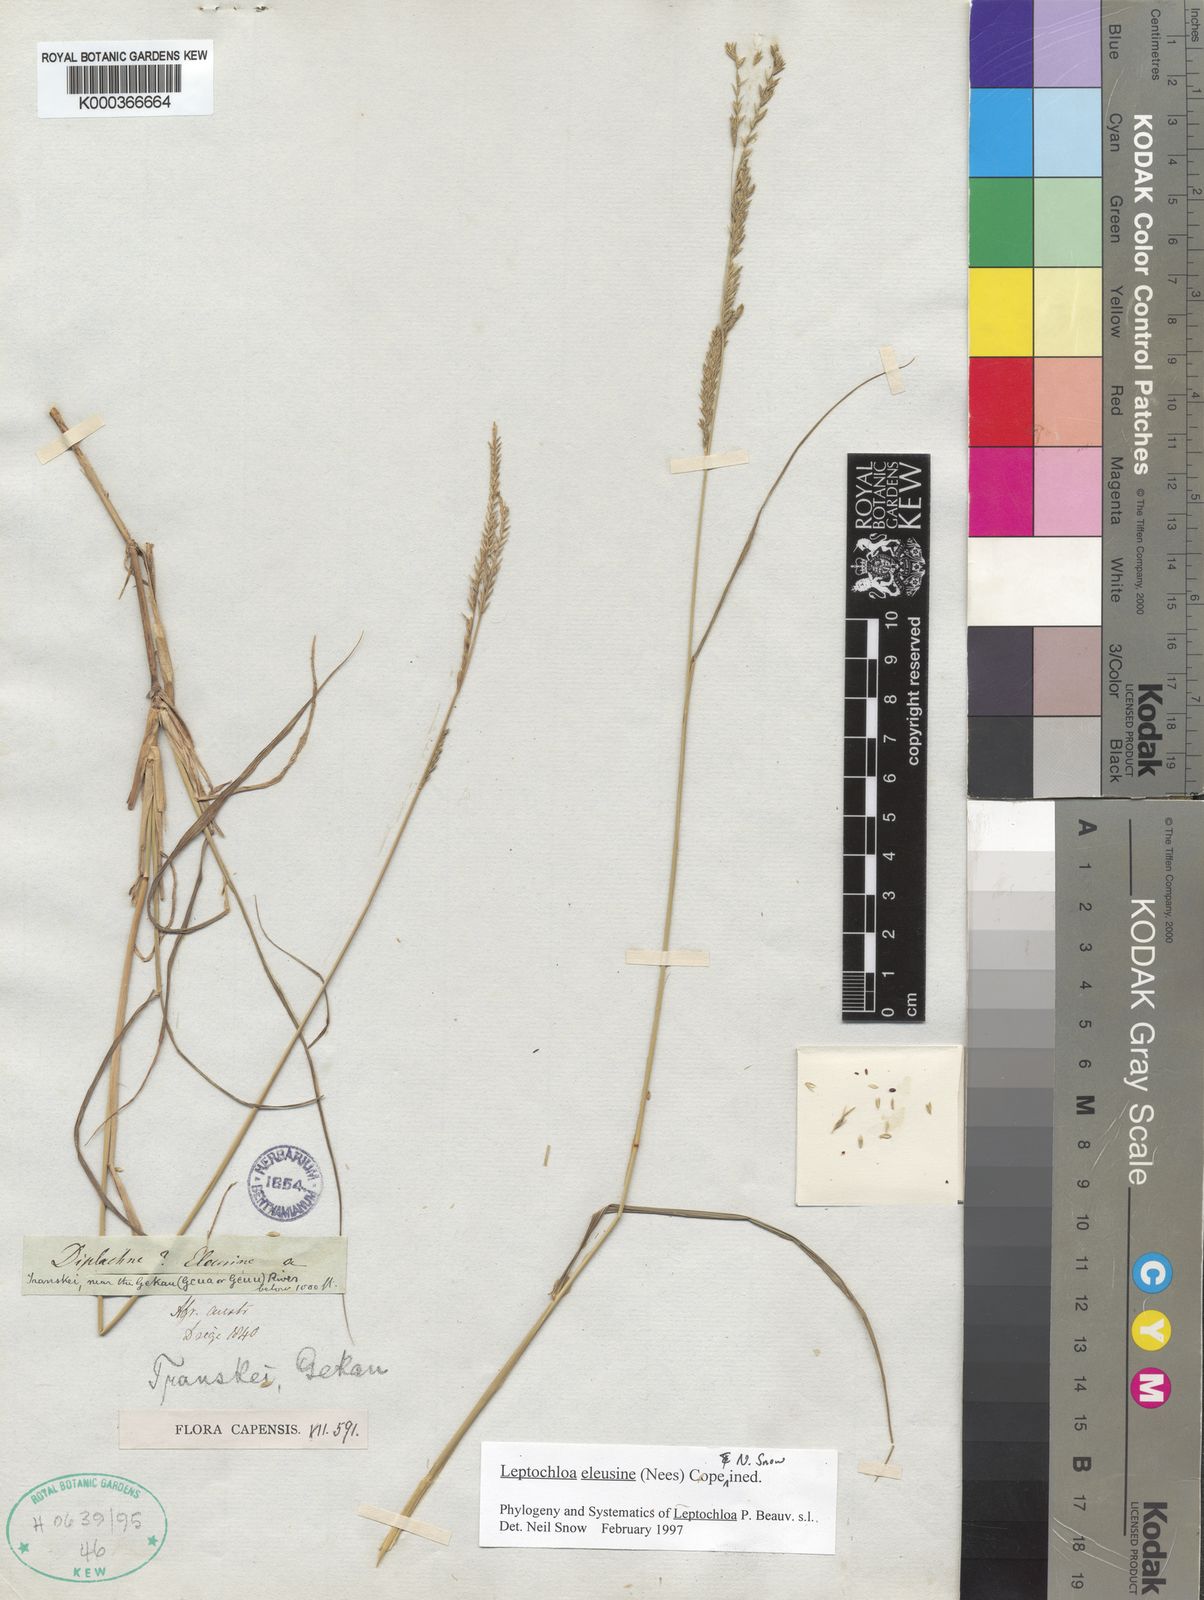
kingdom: Plantae
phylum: Tracheophyta
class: Liliopsida
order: Poales
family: Poaceae
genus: Disakisperma
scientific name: Disakisperma eleusine
